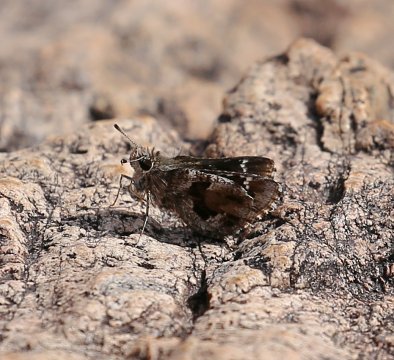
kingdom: Animalia
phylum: Arthropoda
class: Insecta
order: Lepidoptera
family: Hesperiidae
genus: Mastor
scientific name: Mastor nysa
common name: Nysa Roadside-Skipper
